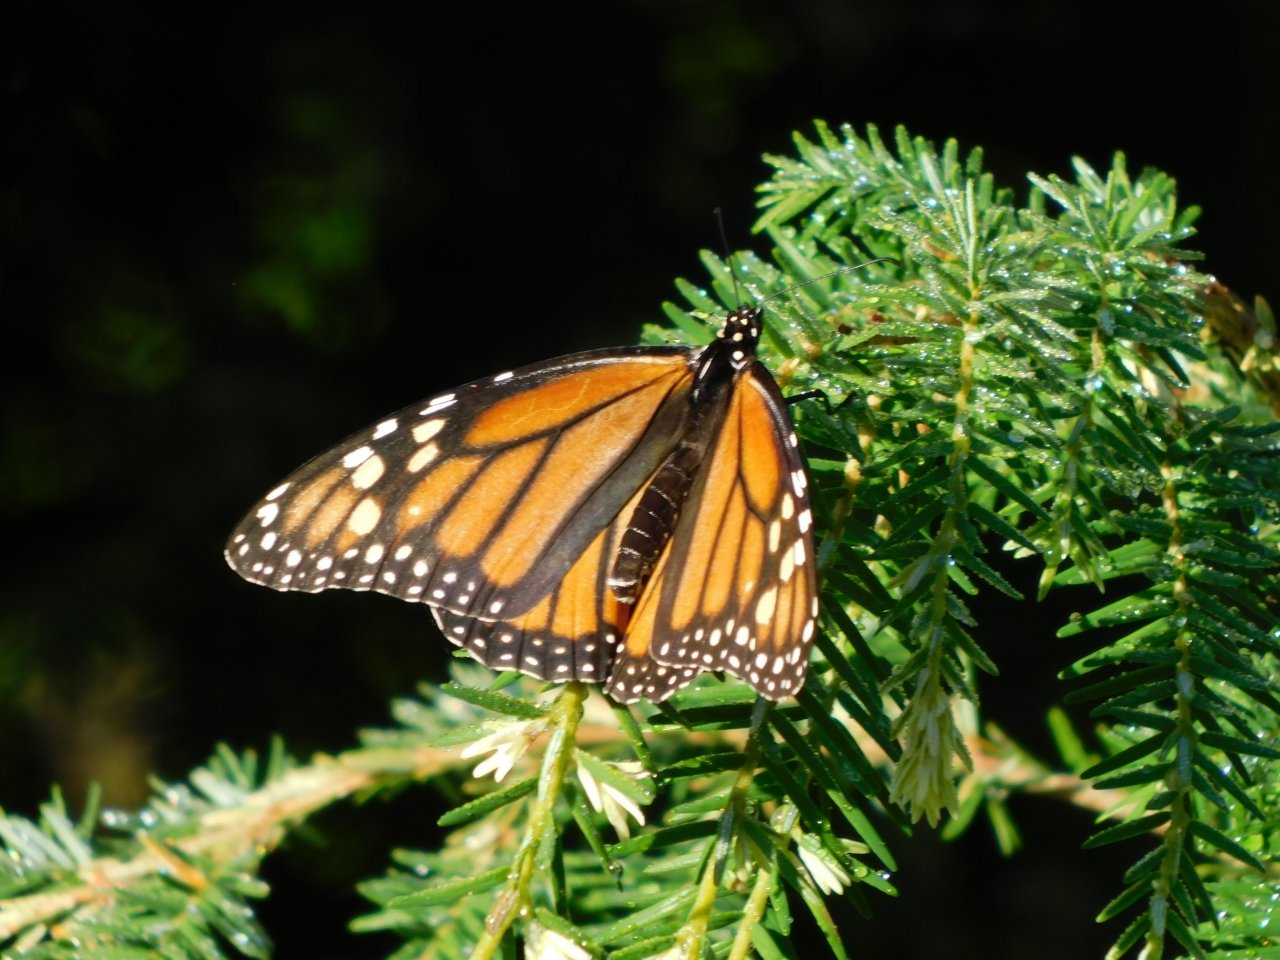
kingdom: Animalia
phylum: Arthropoda
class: Insecta
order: Lepidoptera
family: Nymphalidae
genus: Danaus
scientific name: Danaus plexippus
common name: Monarch
